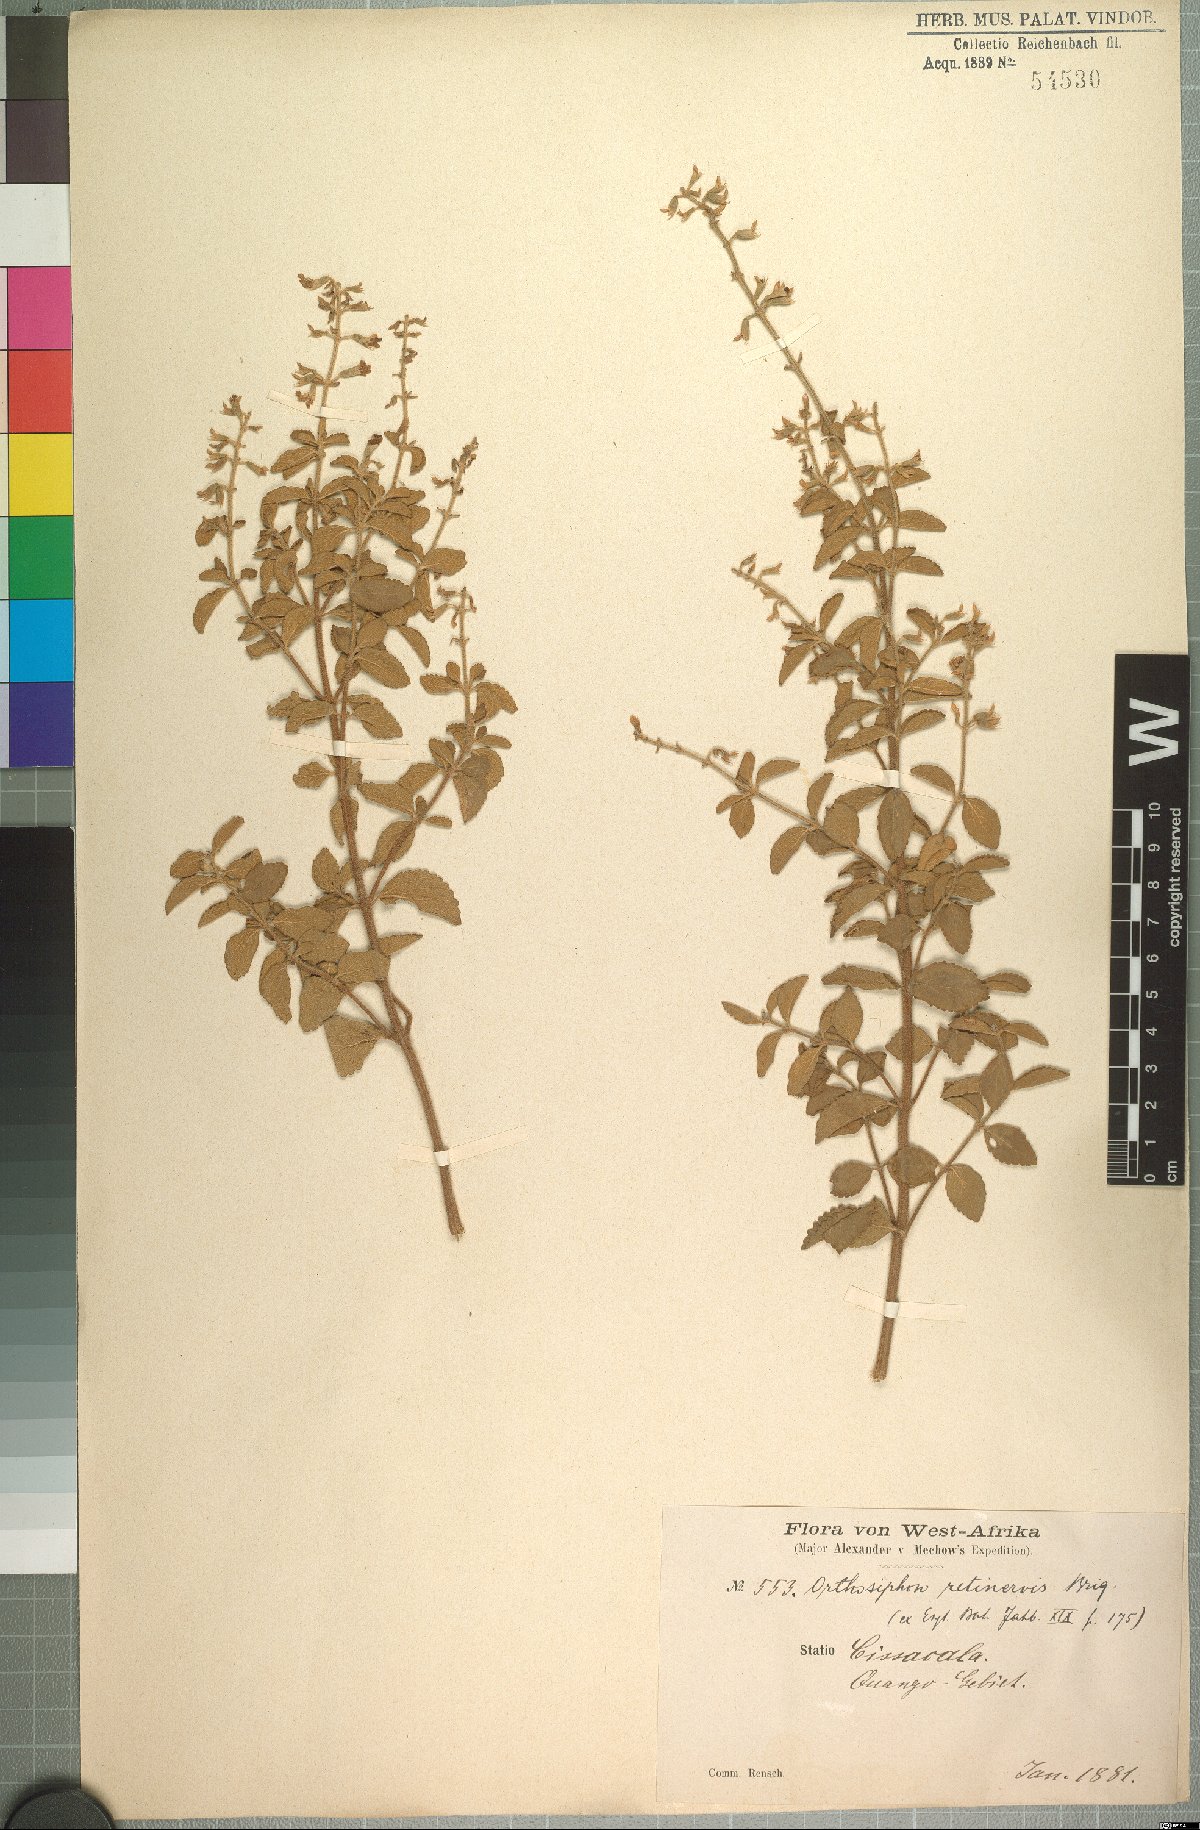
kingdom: Plantae
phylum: Tracheophyta
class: Magnoliopsida
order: Lamiales
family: Lamiaceae
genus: Endostemon
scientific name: Endostemon membranaceus
